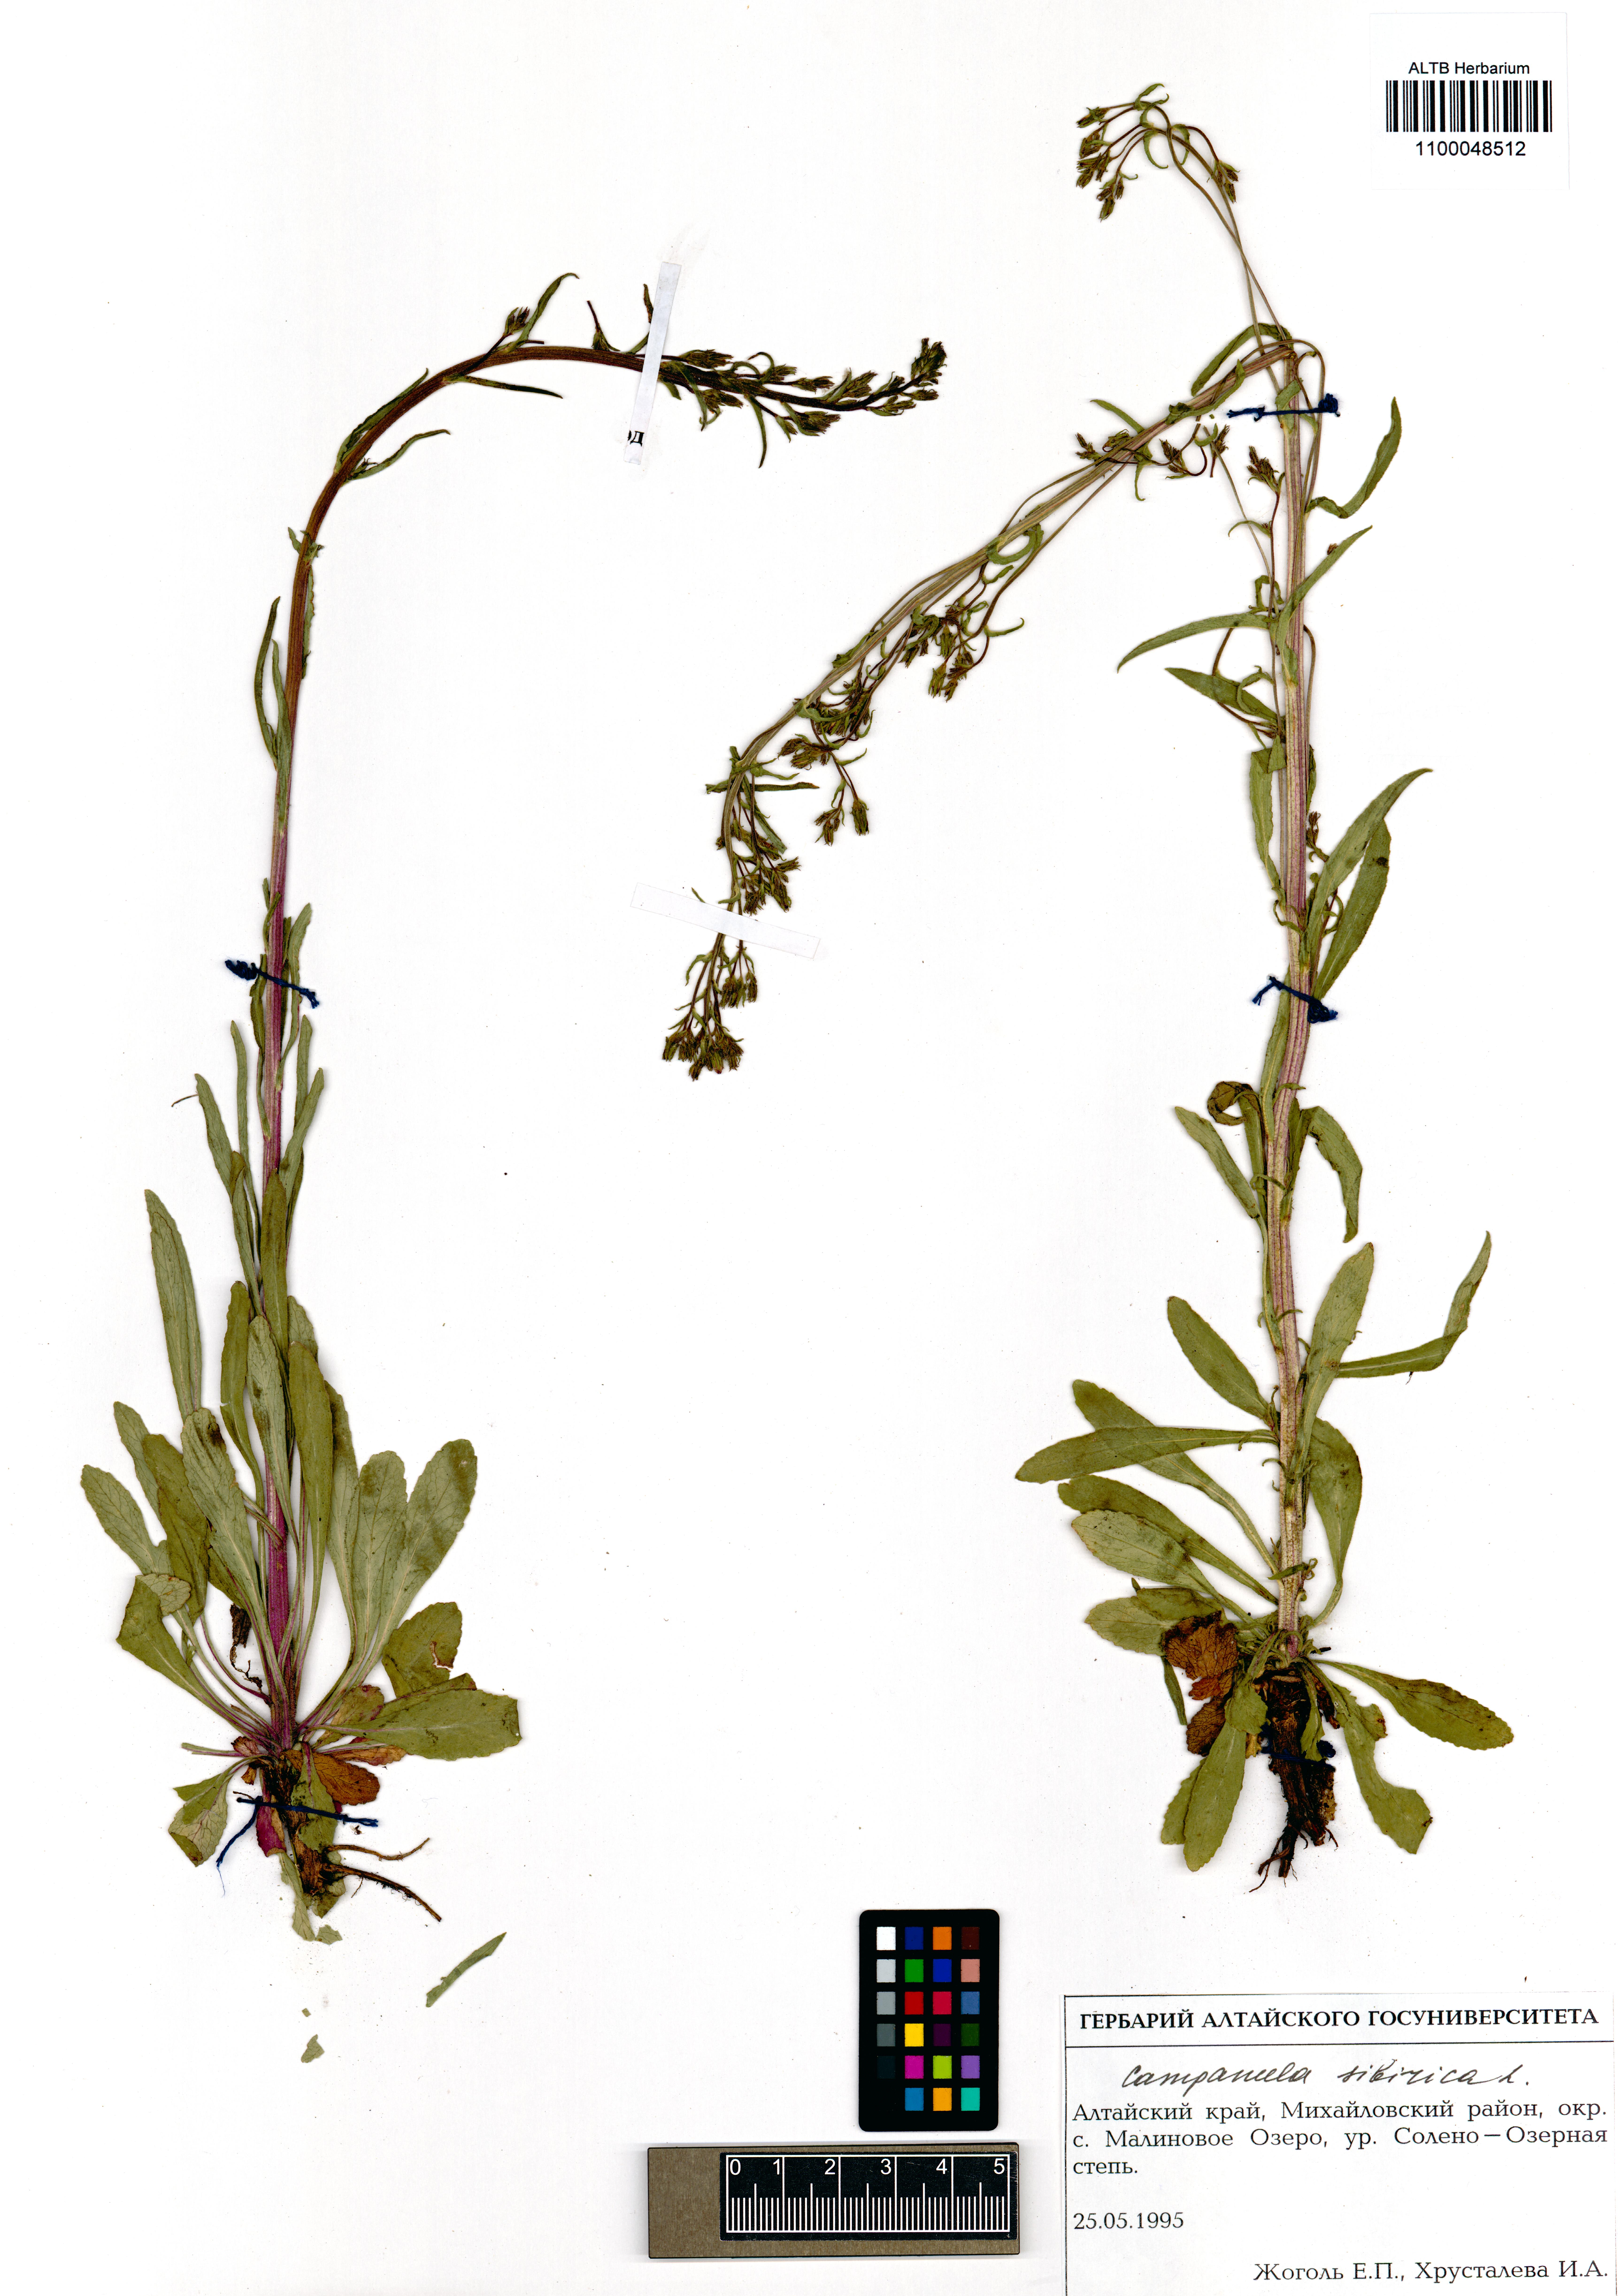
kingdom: Plantae
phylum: Tracheophyta
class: Magnoliopsida
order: Asterales
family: Campanulaceae
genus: Campanula
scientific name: Campanula sibirica
